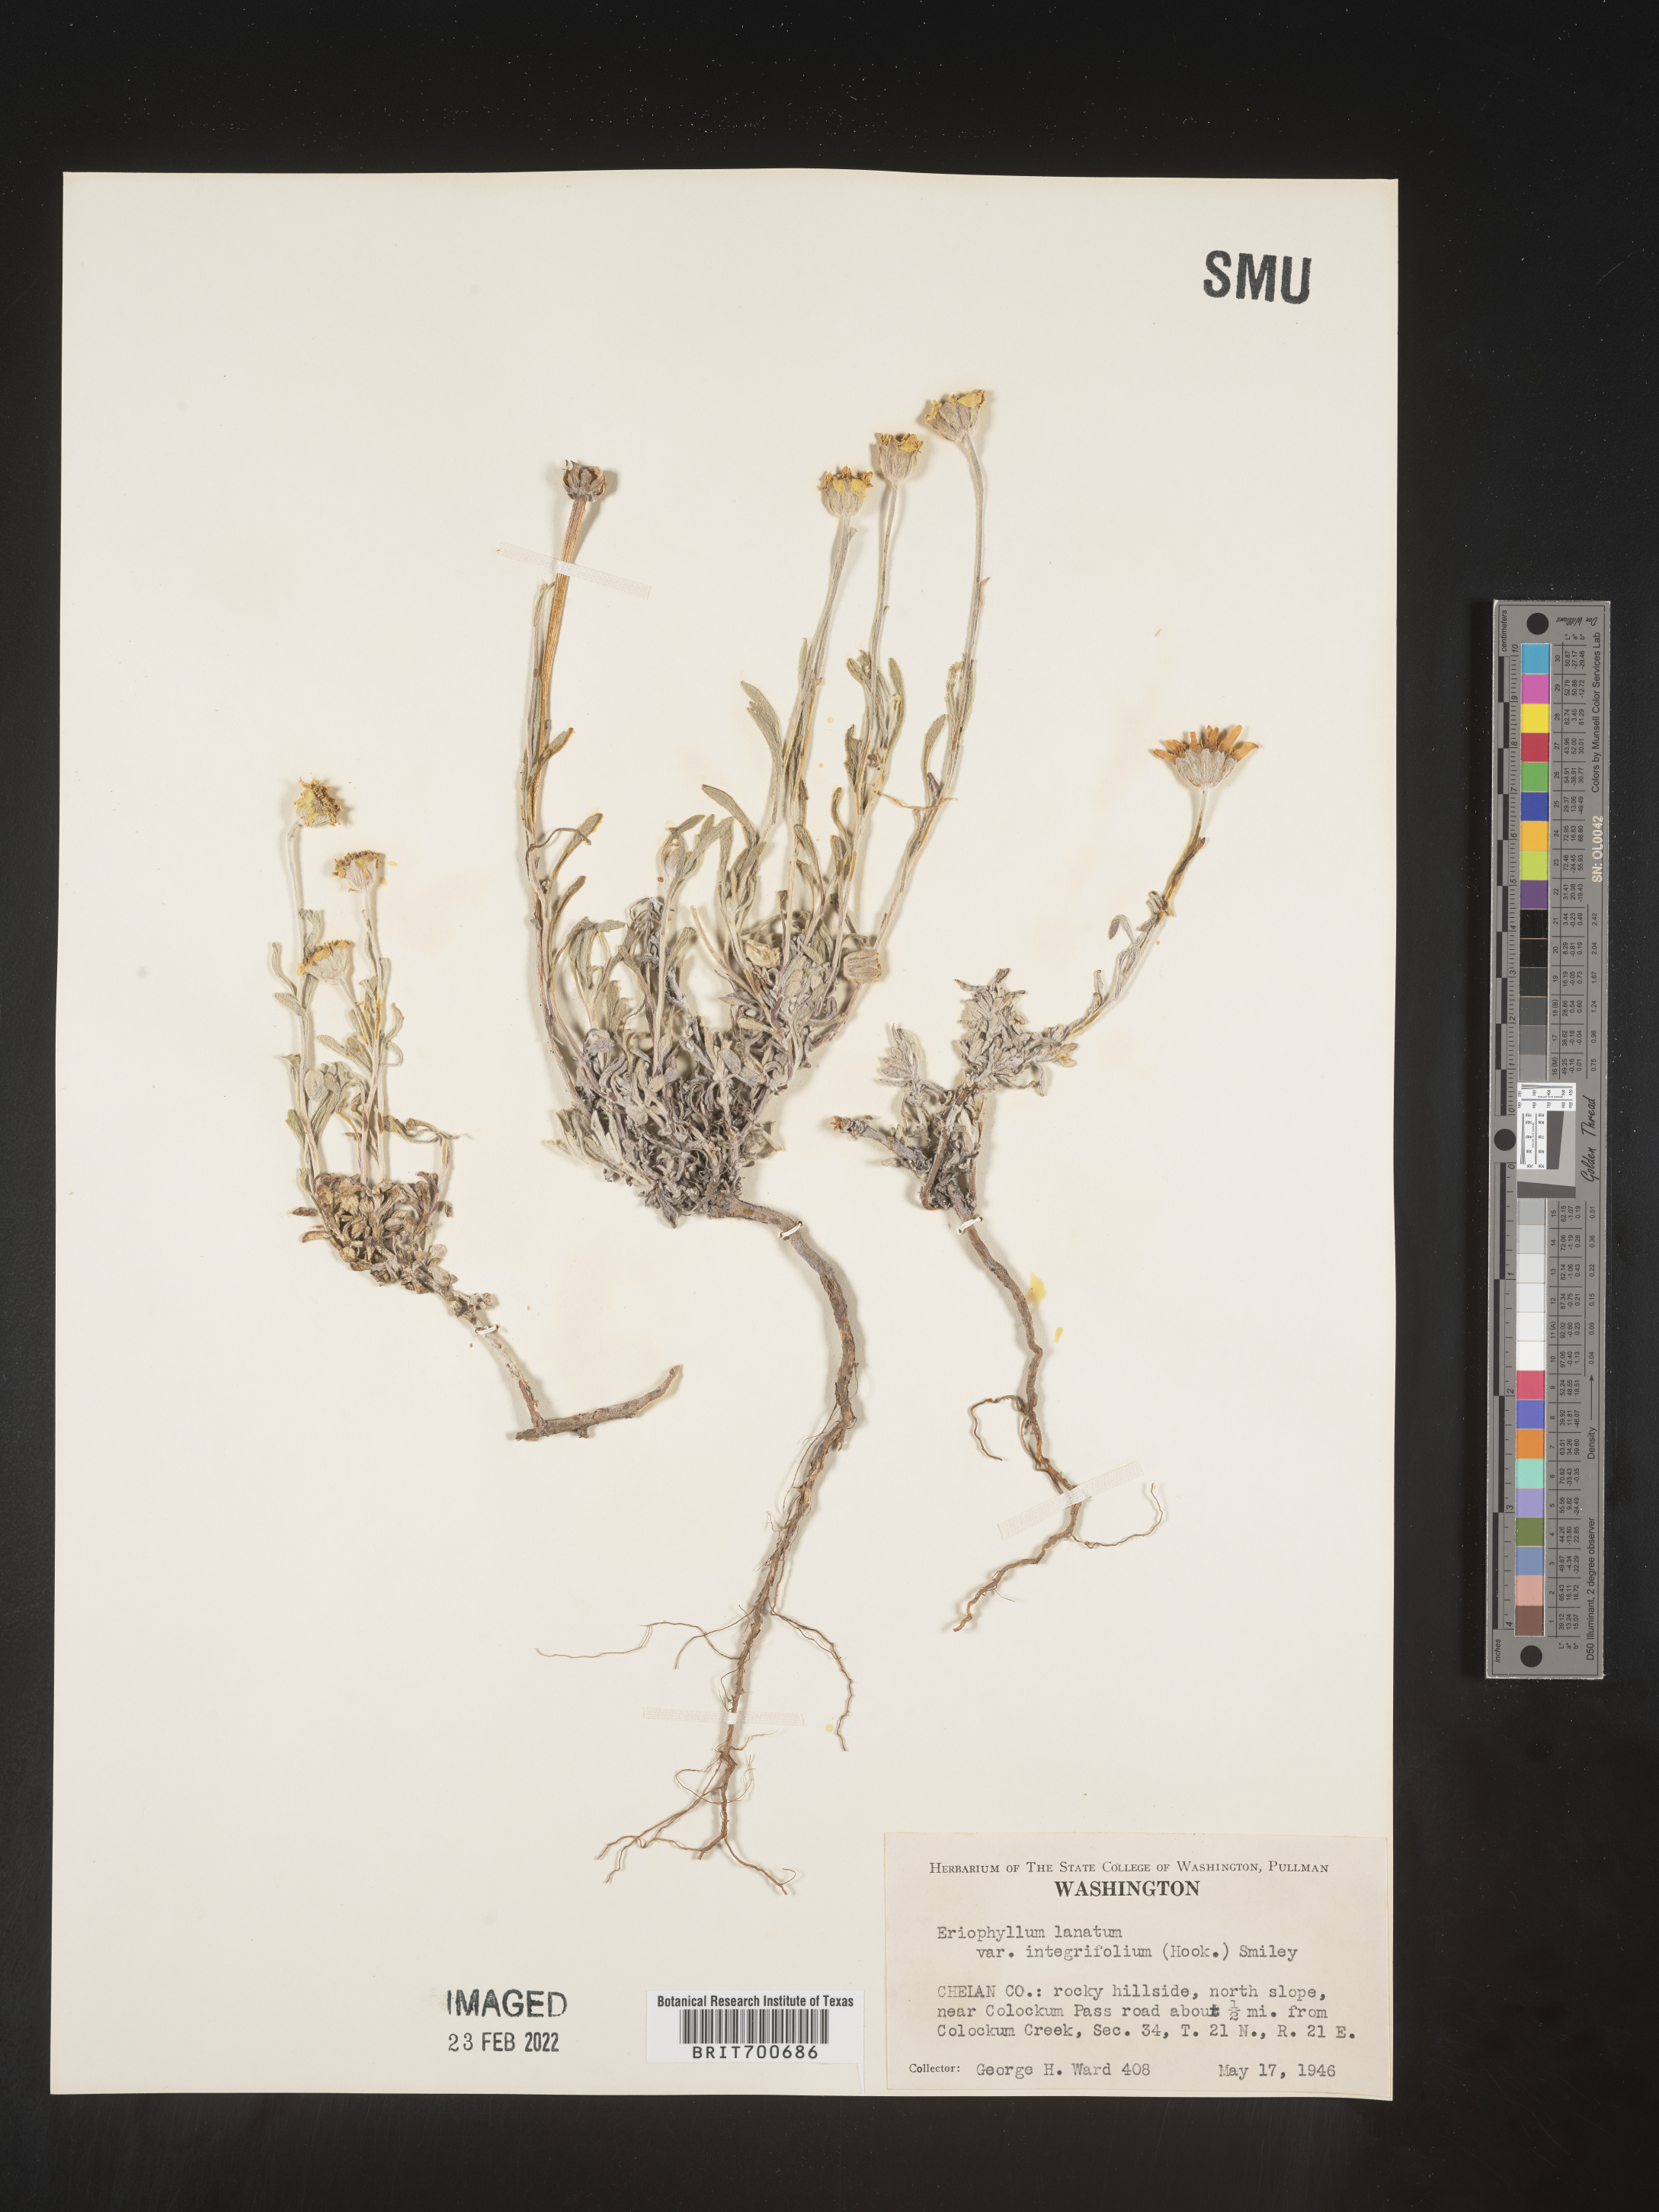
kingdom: Plantae
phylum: Tracheophyta
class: Magnoliopsida
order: Asterales
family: Asteraceae
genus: Eriophyllum
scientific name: Eriophyllum lanatum
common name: Common woolly-sunflower
